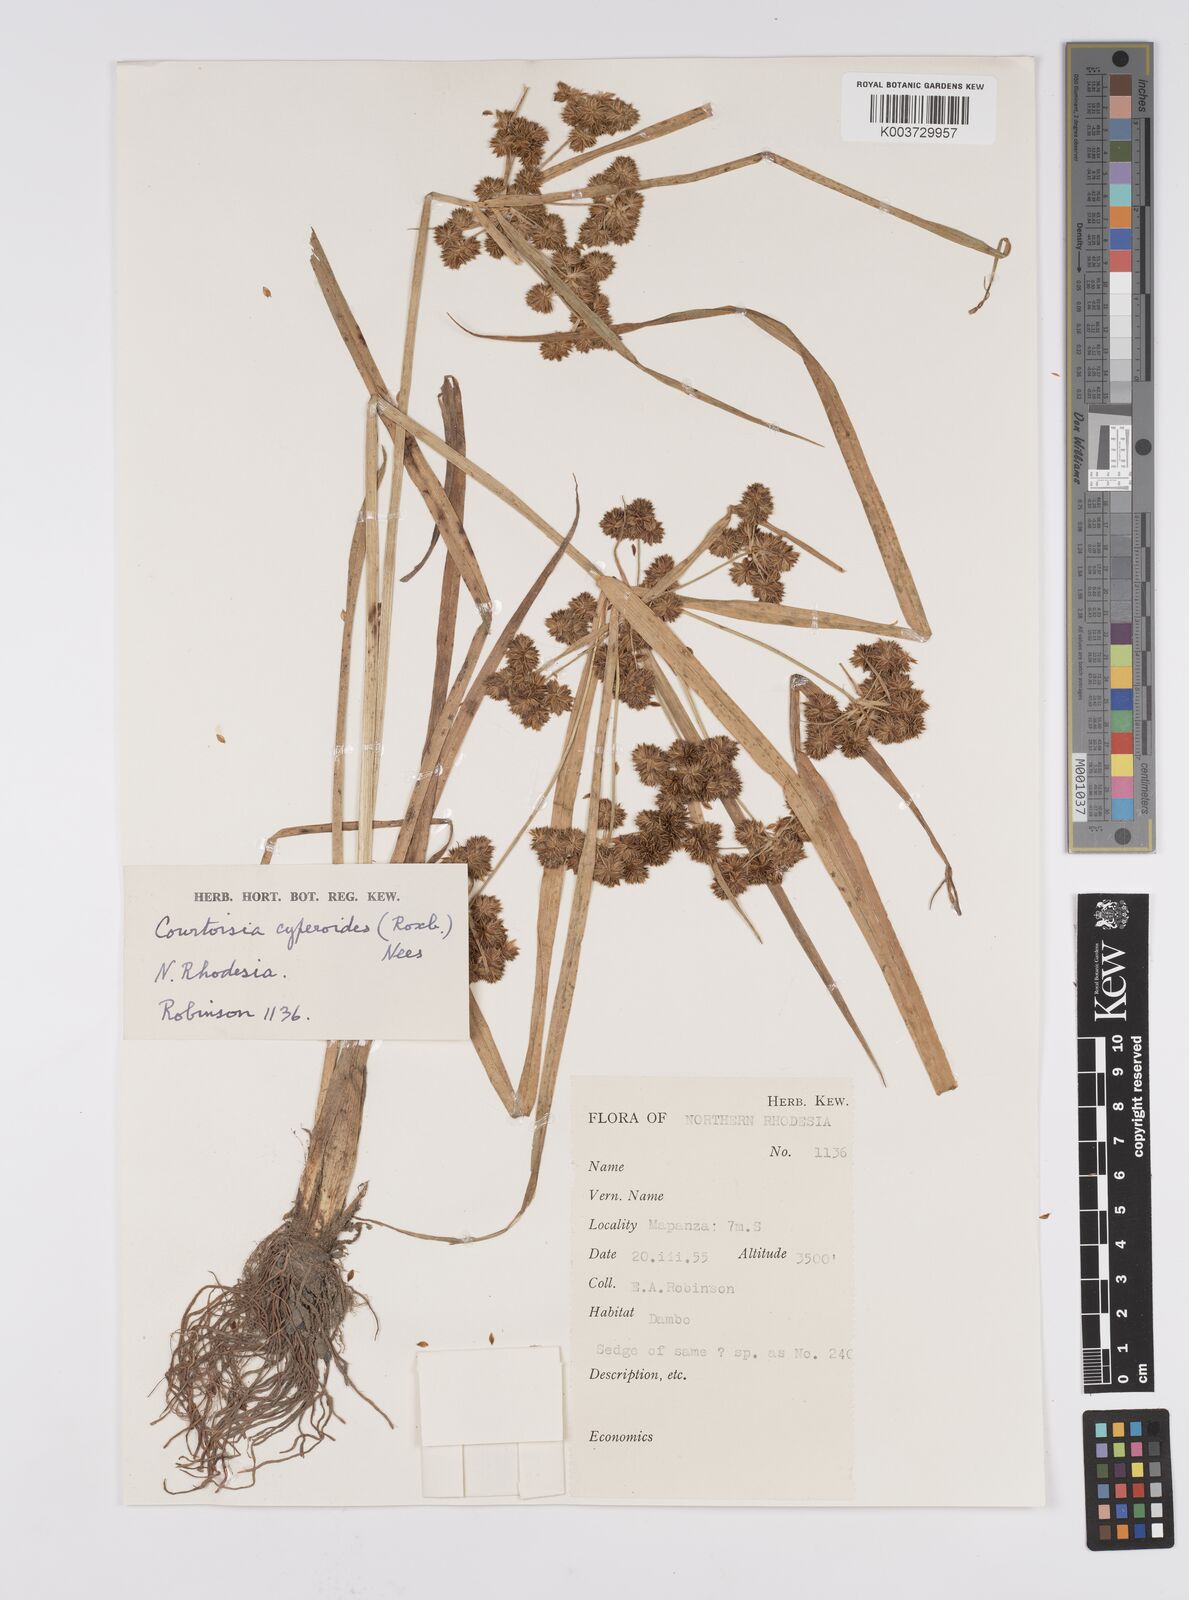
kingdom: Plantae
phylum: Tracheophyta
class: Liliopsida
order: Poales
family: Cyperaceae
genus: Cyperus
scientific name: Cyperus cyperoides
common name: Pacific island flat sedge
